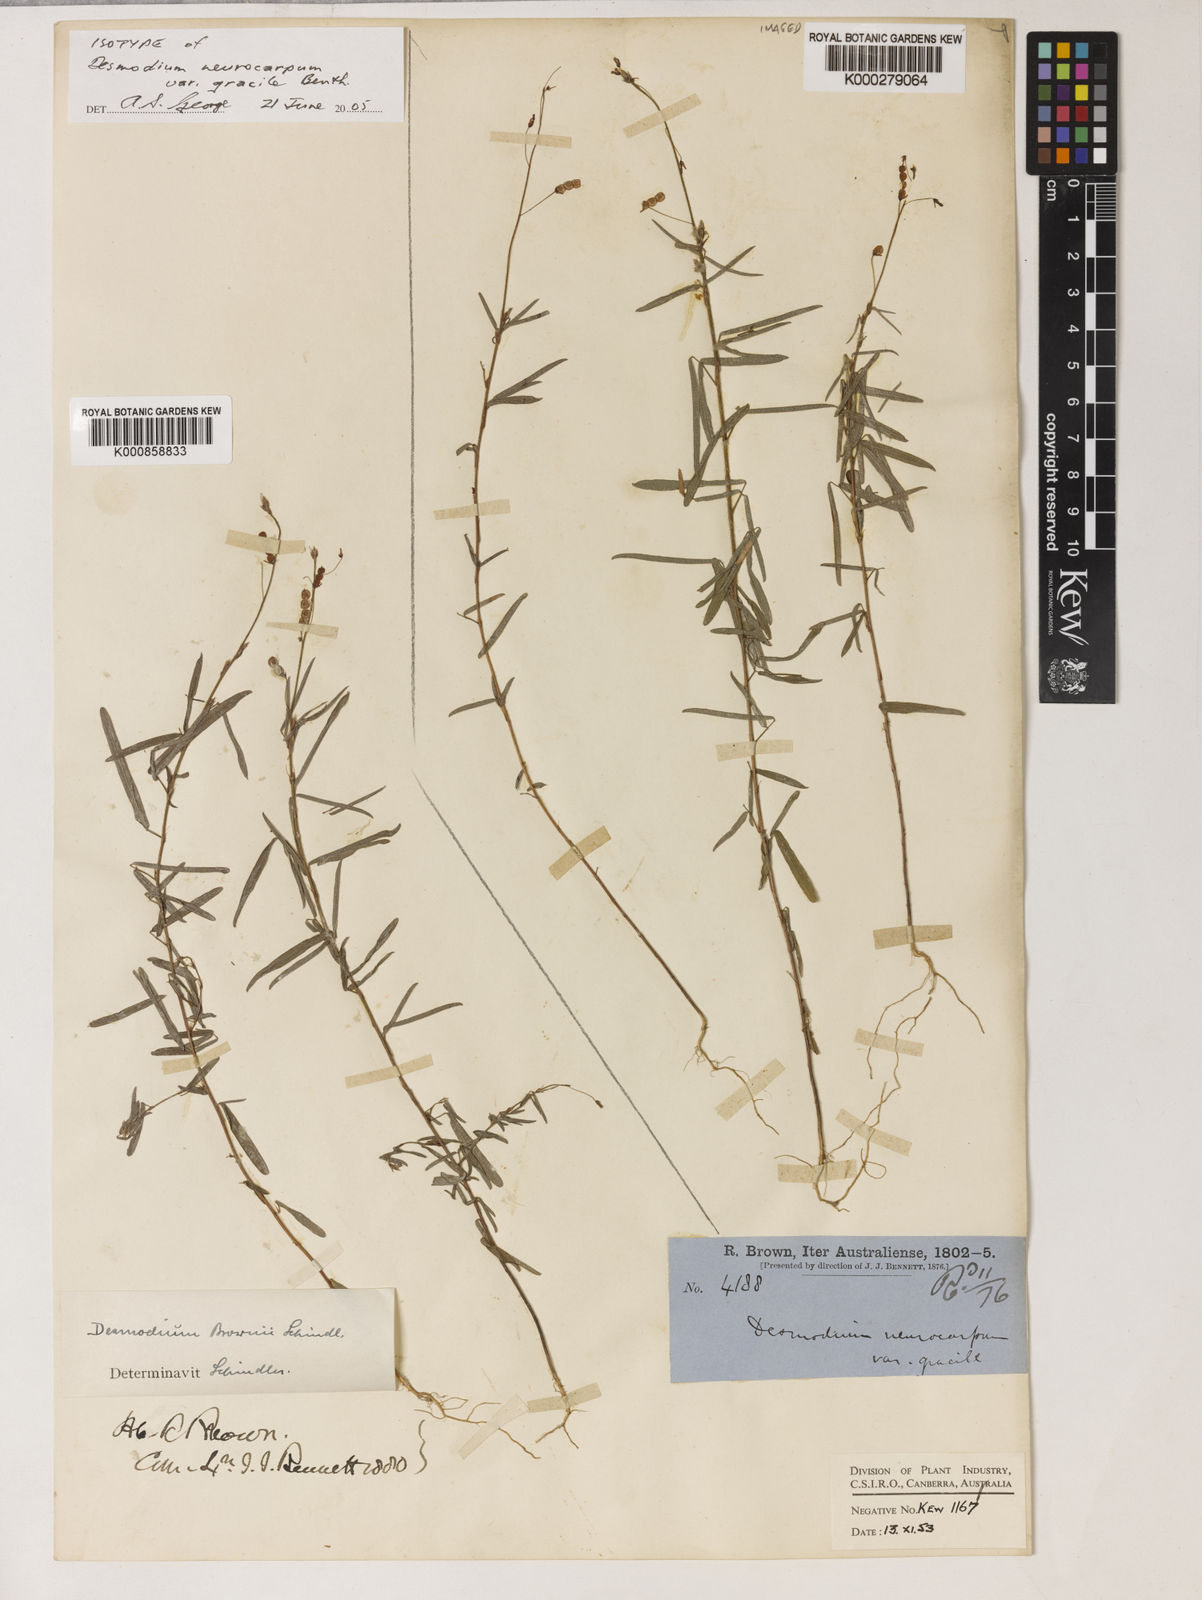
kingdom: Plantae
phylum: Tracheophyta
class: Magnoliopsida
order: Fabales
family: Fabaceae
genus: Grona
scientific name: Grona brownii
